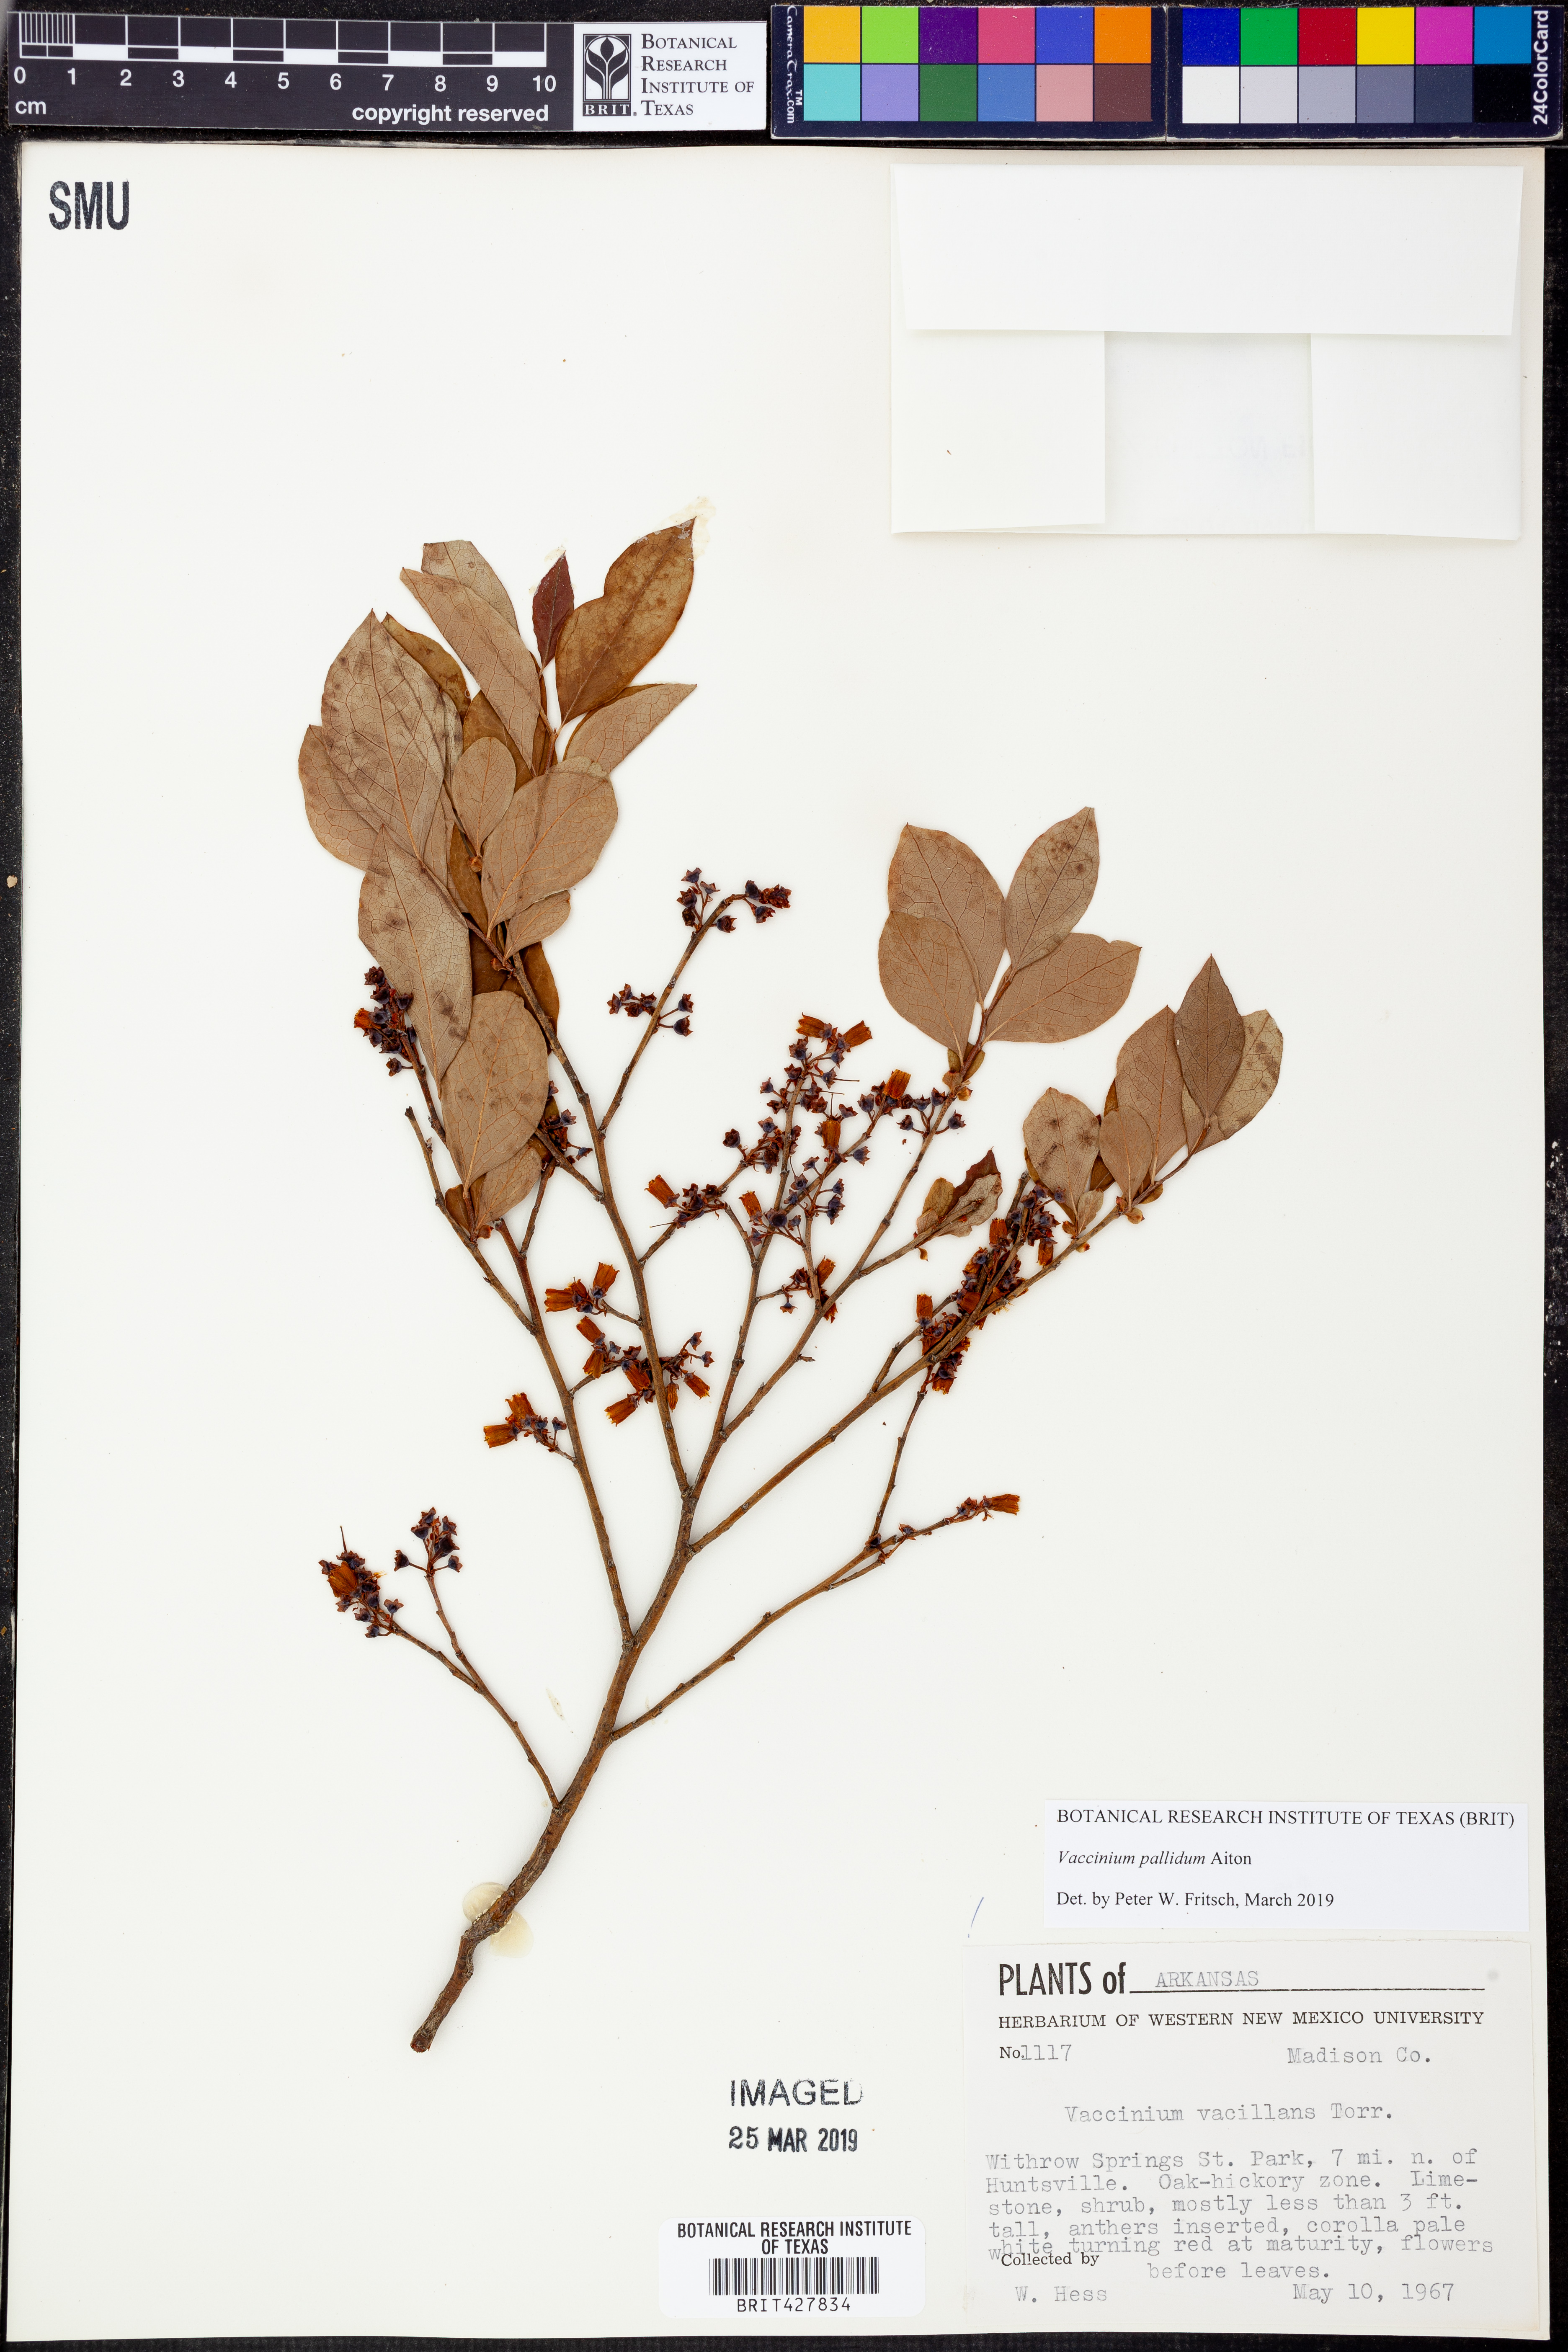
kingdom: Plantae
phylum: Tracheophyta
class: Magnoliopsida
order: Ericales
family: Ericaceae
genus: Vaccinium
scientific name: Vaccinium pallidum
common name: Blue ridge blueberry
